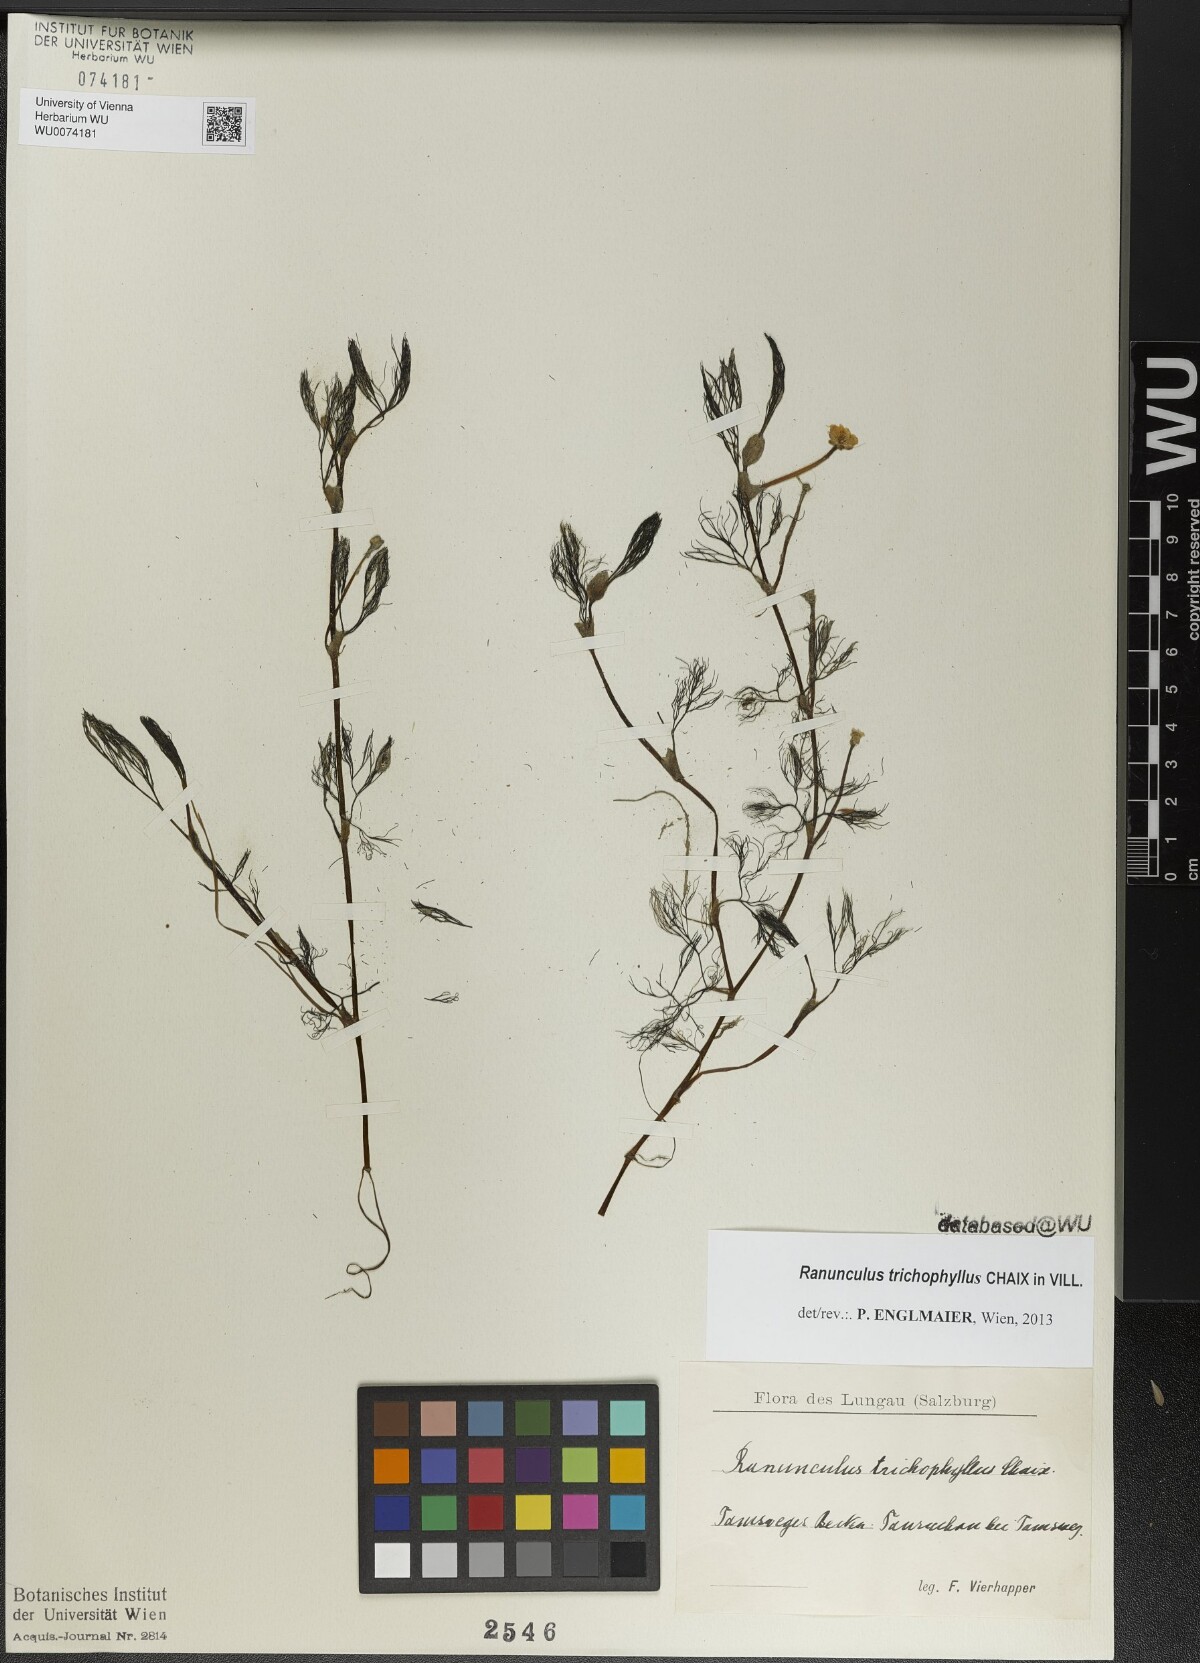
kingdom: Plantae
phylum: Tracheophyta
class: Magnoliopsida
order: Ranunculales
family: Ranunculaceae
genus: Ranunculus
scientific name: Ranunculus trichophyllus
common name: Thread-leaved water-crowfoot
